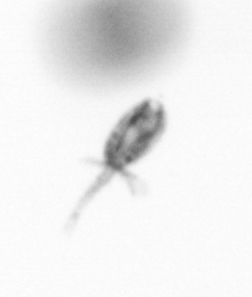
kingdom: Animalia
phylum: Arthropoda
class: Copepoda
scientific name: Copepoda
